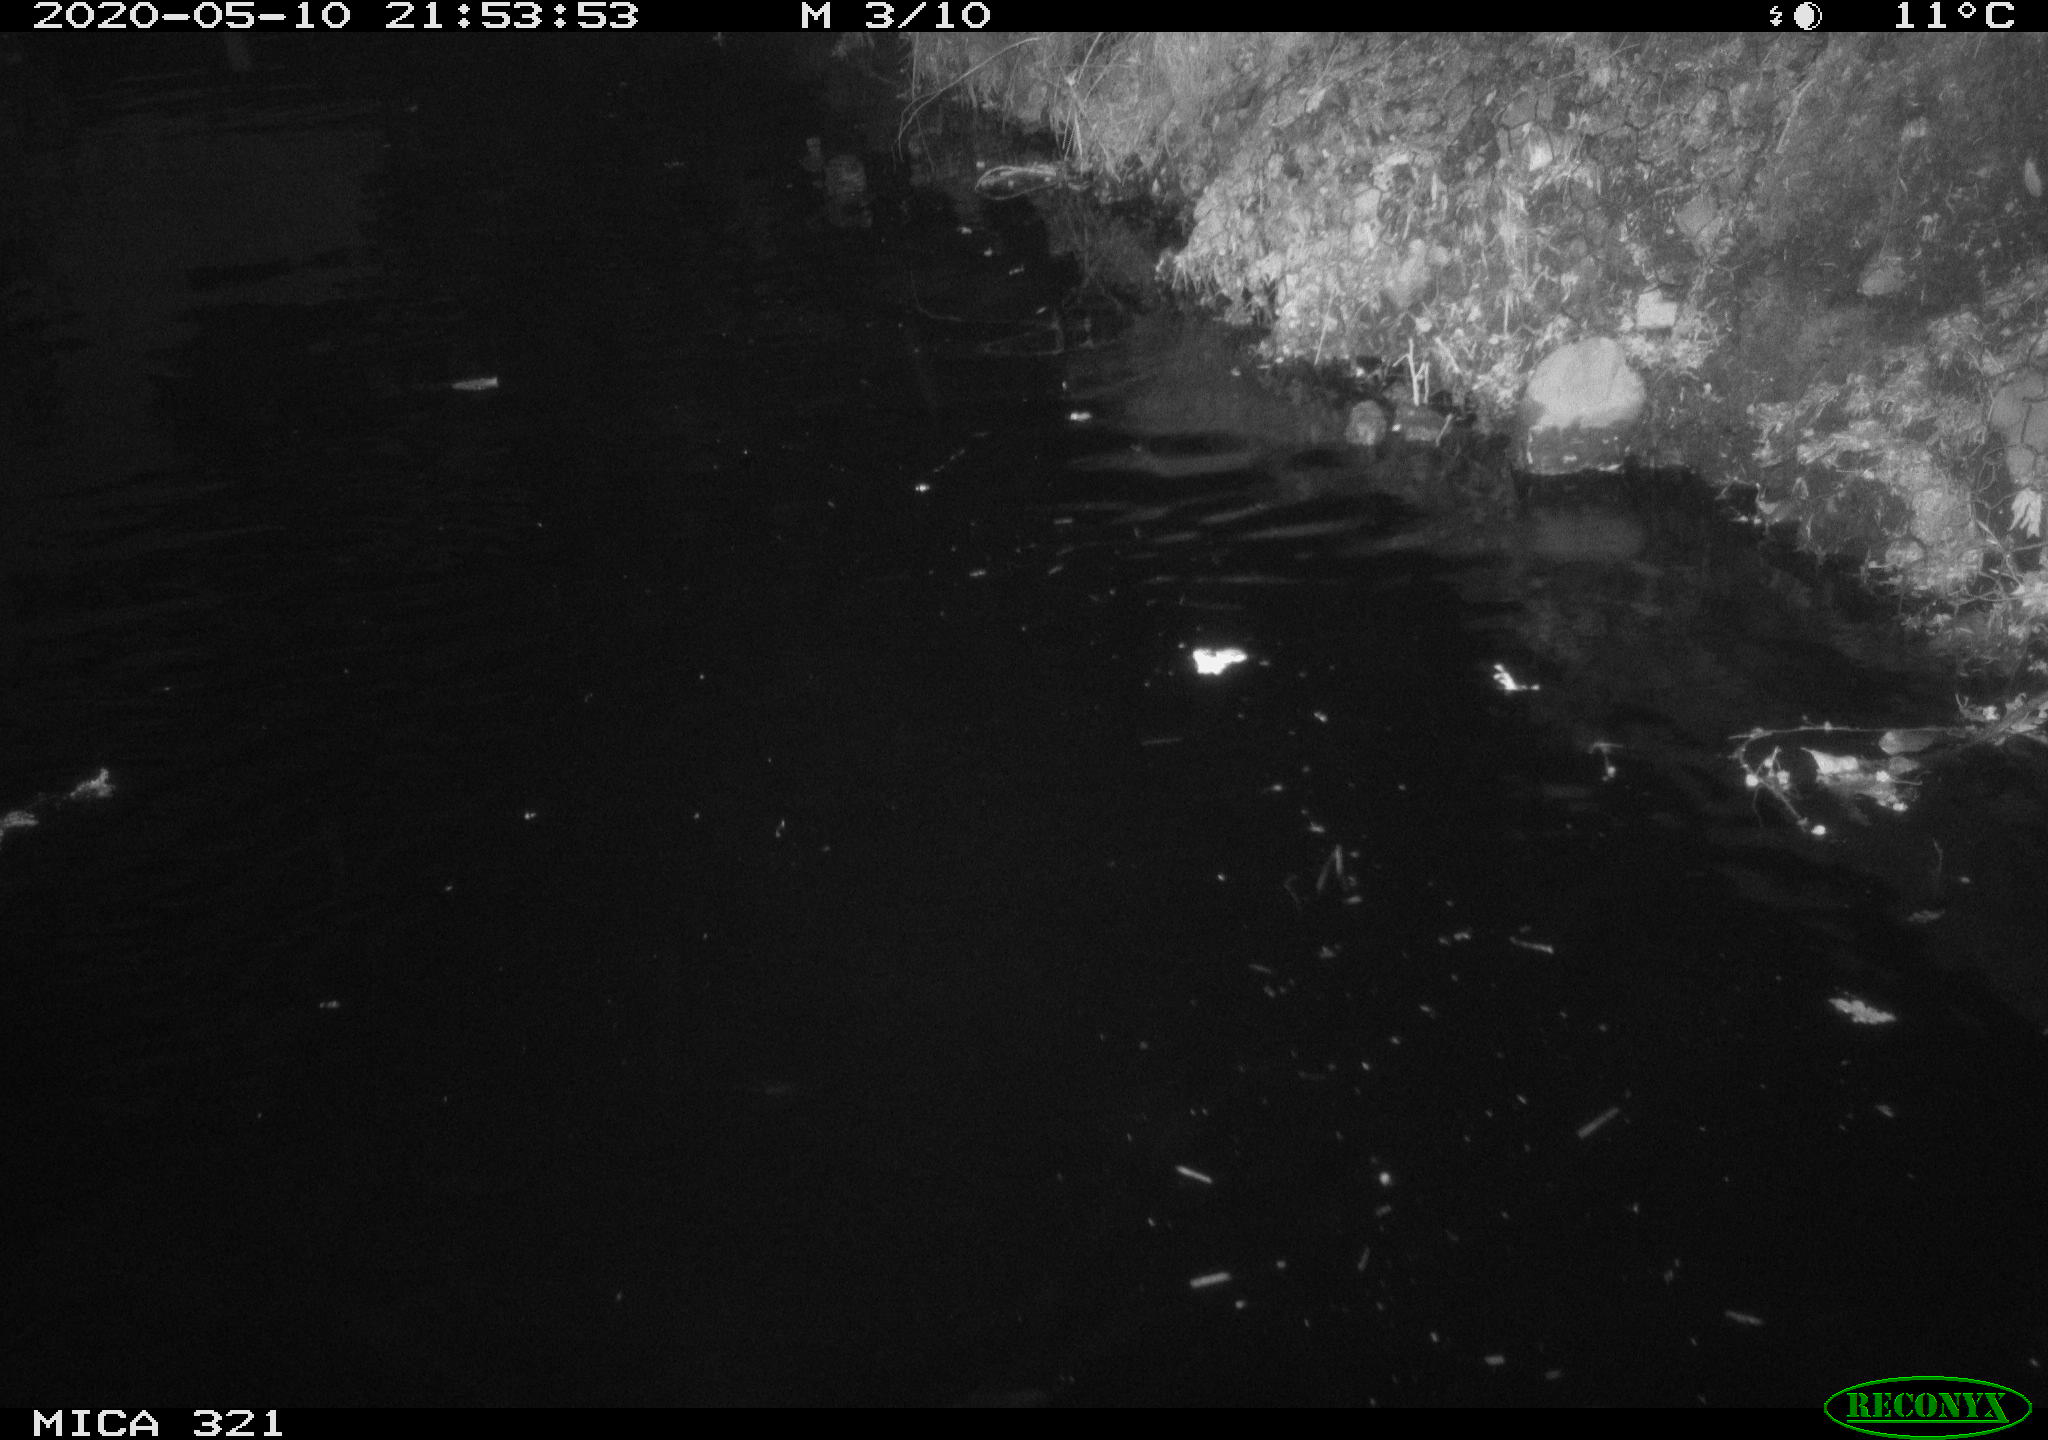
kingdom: Animalia
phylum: Chordata
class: Aves
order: Anseriformes
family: Anatidae
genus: Anas
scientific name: Anas platyrhynchos
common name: Mallard
